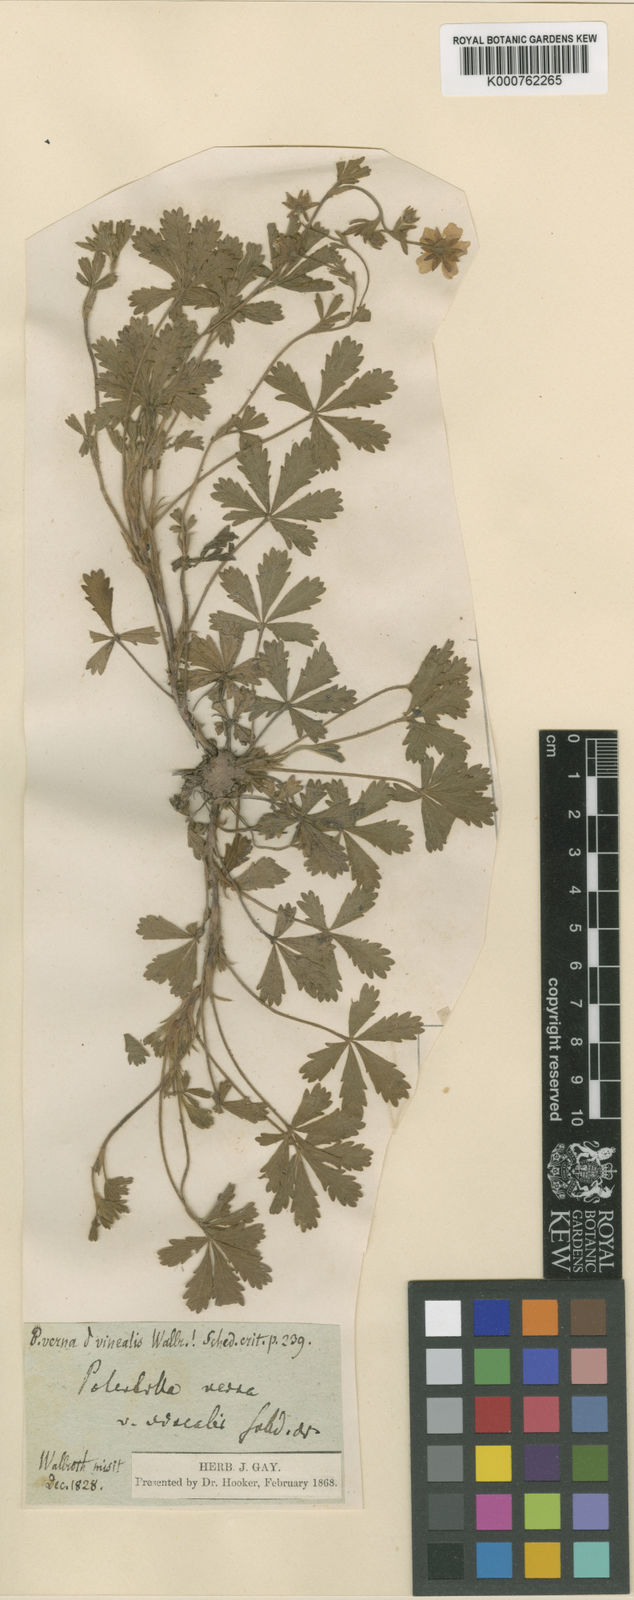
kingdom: Plantae
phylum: Tracheophyta
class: Magnoliopsida
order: Rosales
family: Rosaceae
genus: Potentilla
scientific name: Potentilla verna
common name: Spring cinquefoil
